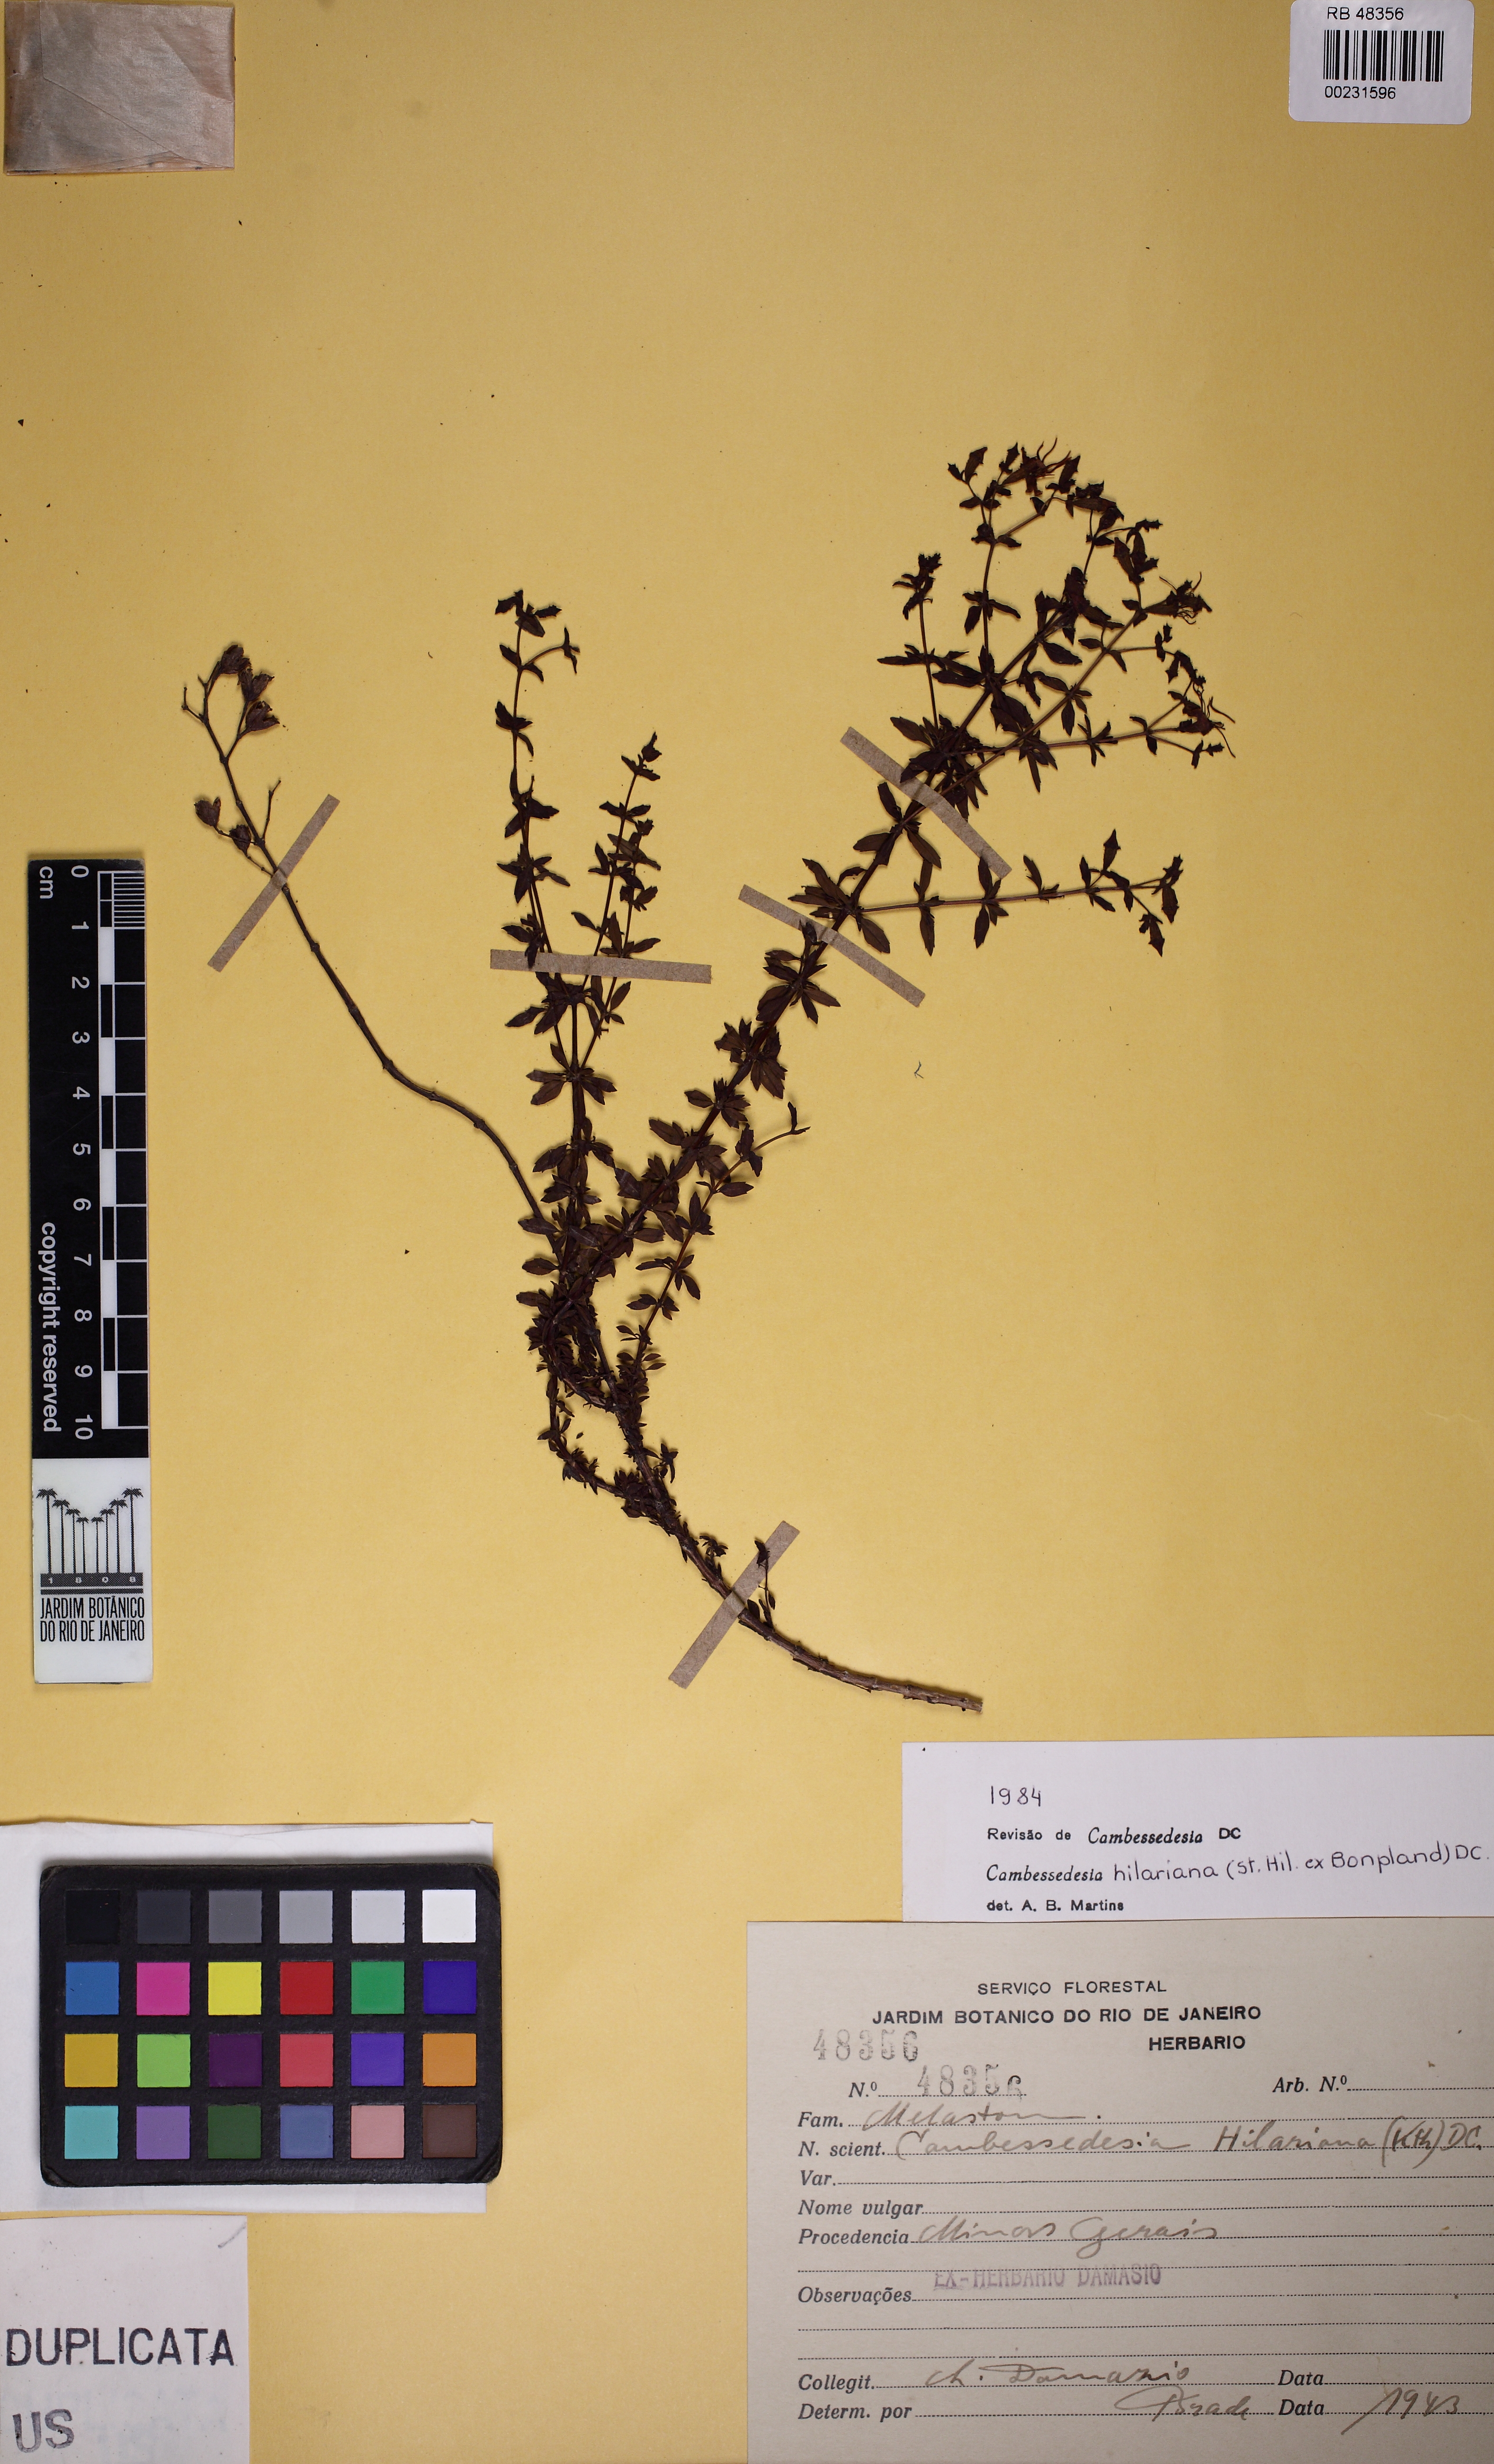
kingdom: Plantae
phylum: Tracheophyta
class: Magnoliopsida
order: Myrtales
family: Melastomataceae
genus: Cambessedesia
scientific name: Cambessedesia hilariana
